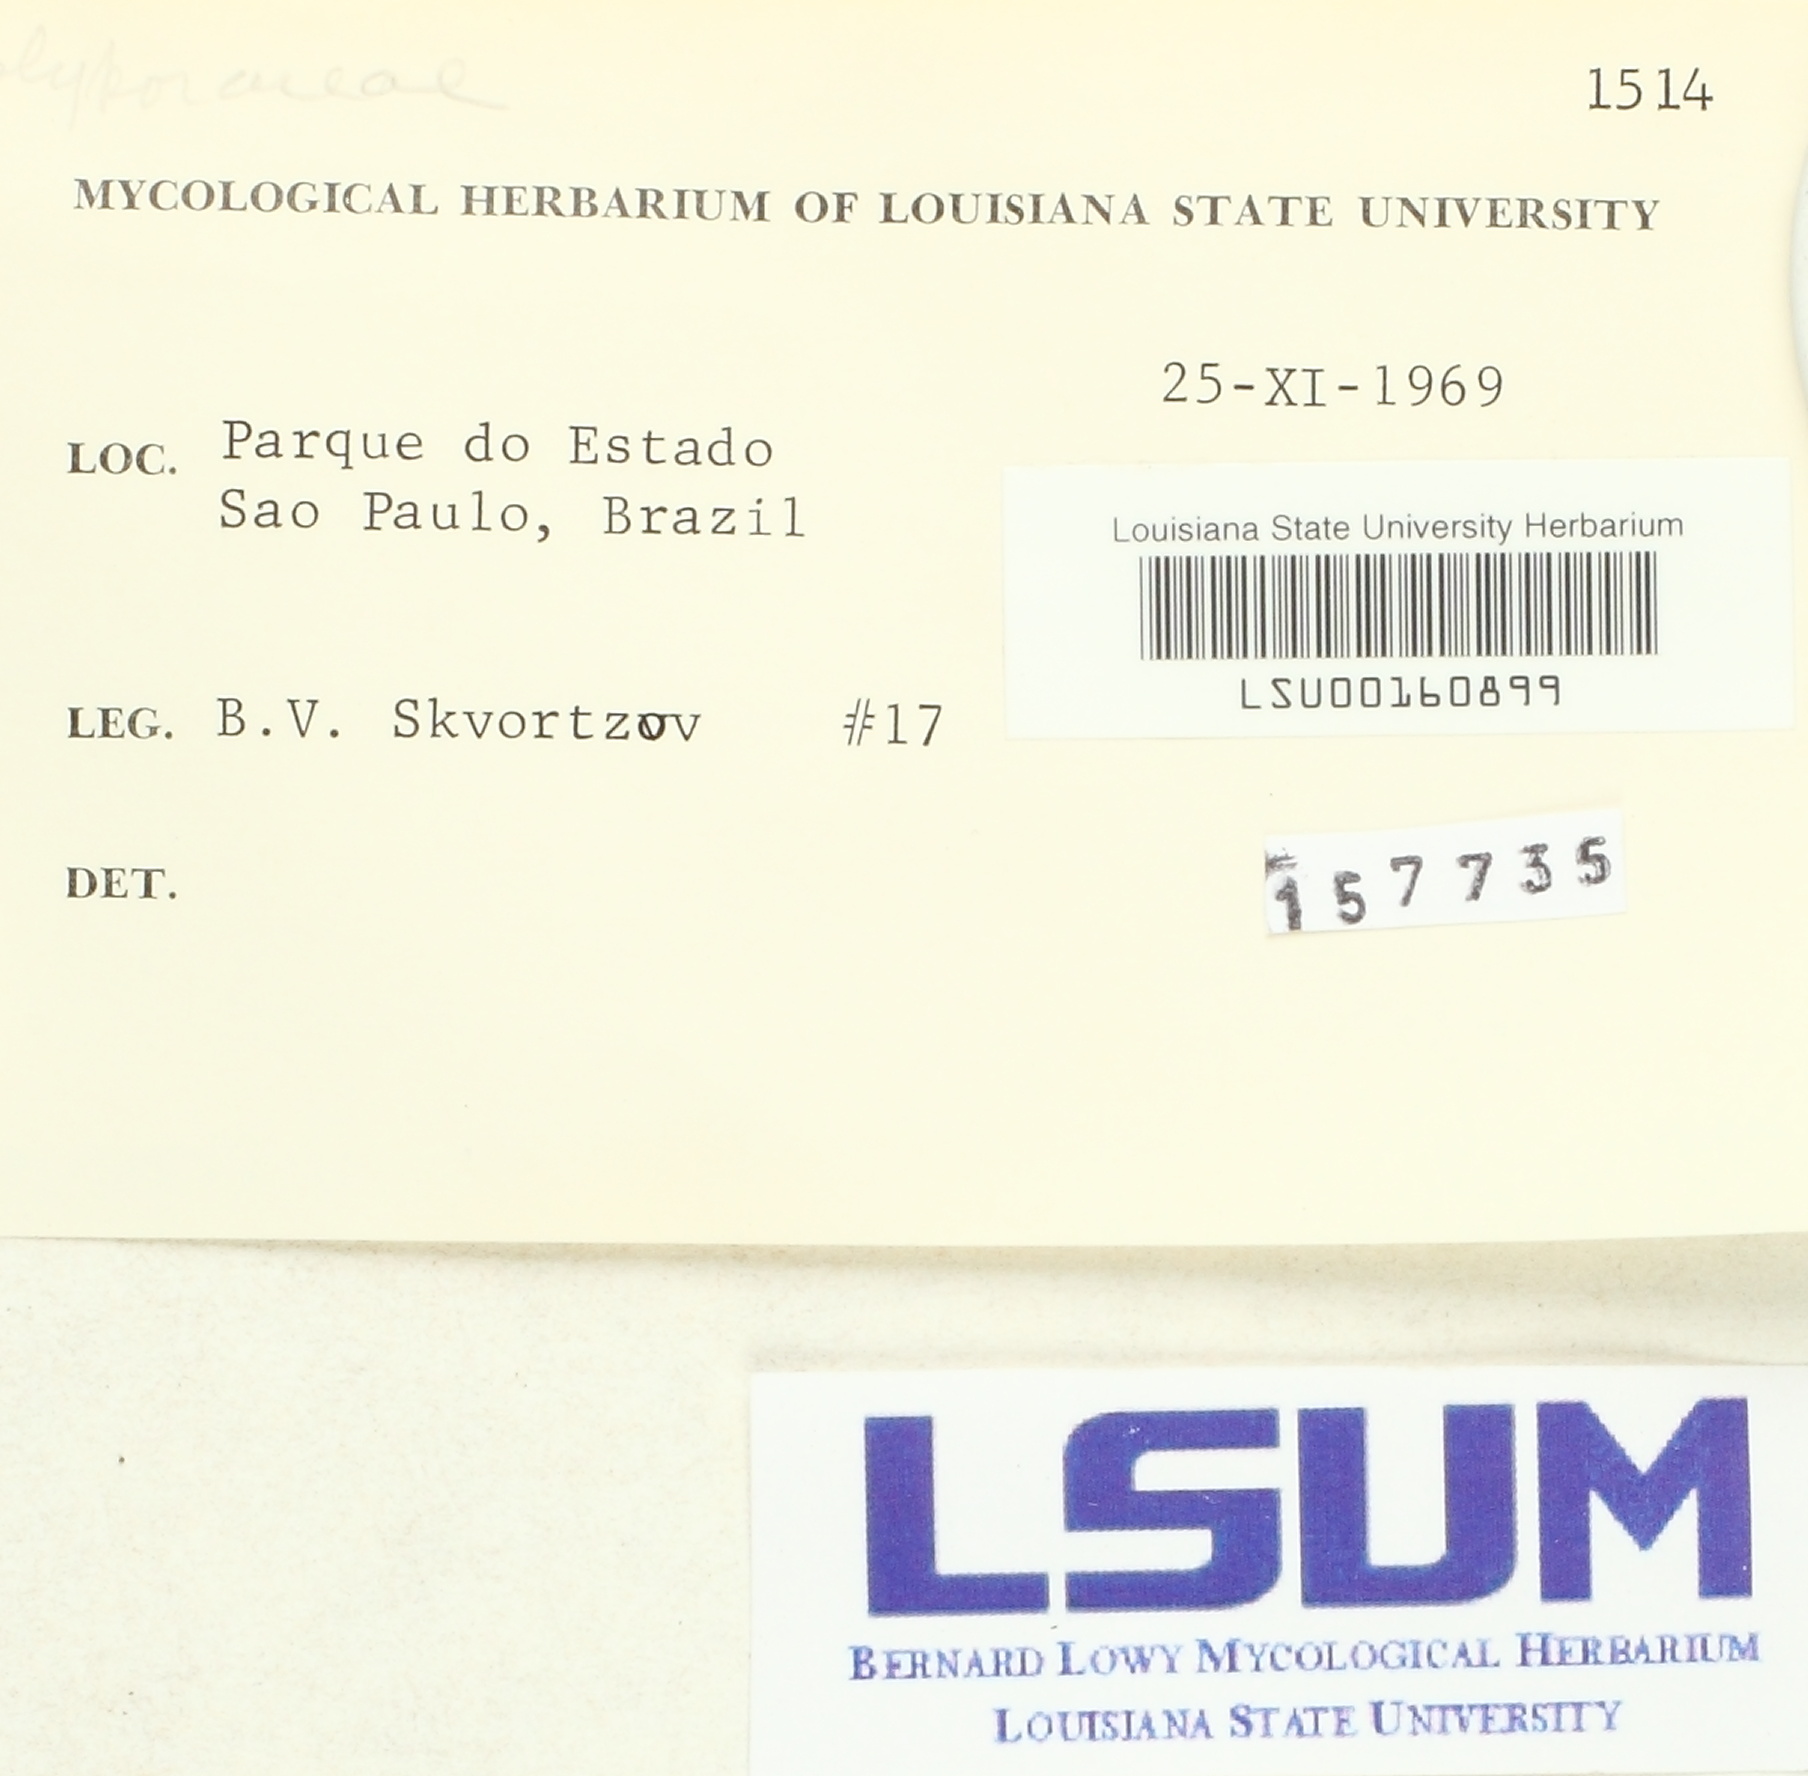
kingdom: Fungi
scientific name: Fungi
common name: Fungi
